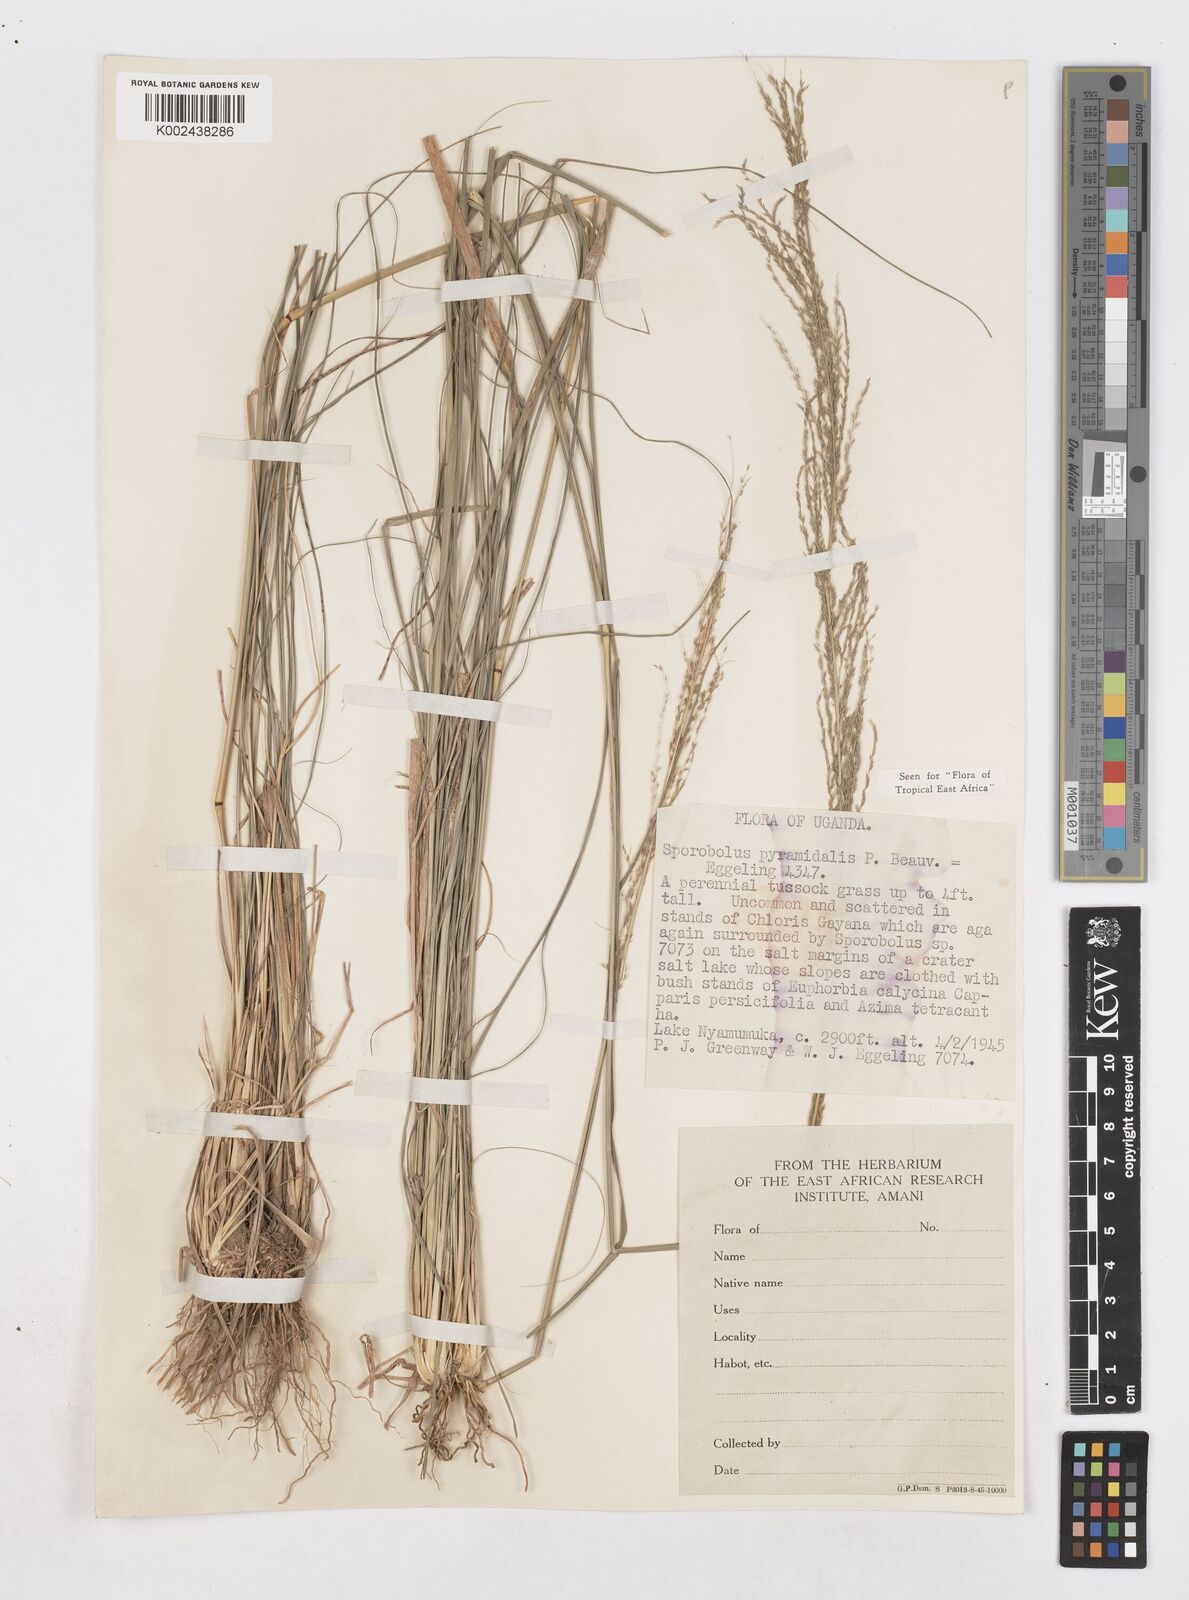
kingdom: Plantae
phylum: Tracheophyta
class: Liliopsida
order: Poales
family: Poaceae
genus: Sporobolus
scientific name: Sporobolus pyramidalis
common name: West indian dropseed
